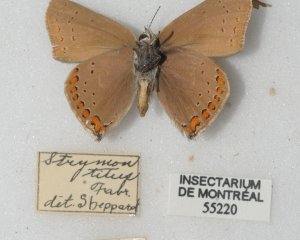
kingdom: Animalia
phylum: Arthropoda
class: Insecta
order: Lepidoptera
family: Lycaenidae
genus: Harkenclenus
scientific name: Harkenclenus titus
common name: Coral Hairstreak
